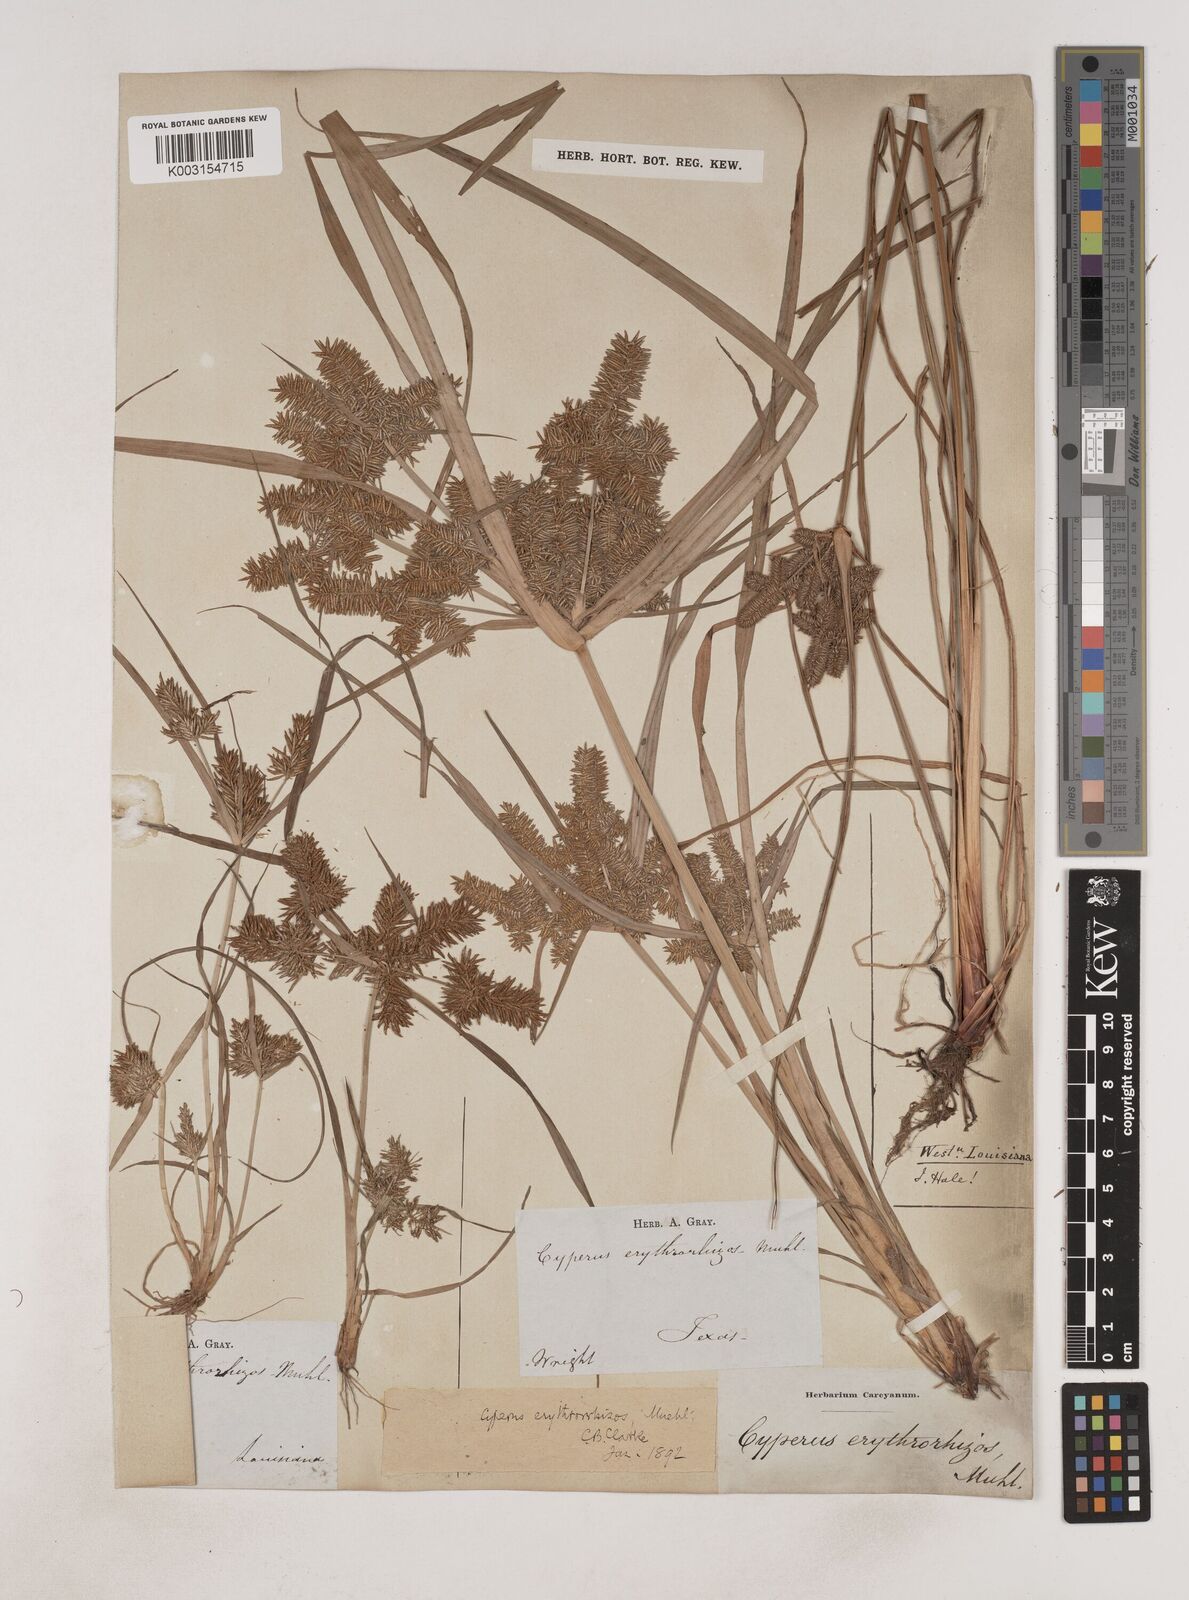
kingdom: Plantae
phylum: Tracheophyta
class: Liliopsida
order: Poales
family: Cyperaceae
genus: Cyperus
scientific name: Cyperus erythrorhizos
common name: Red-root flat sedge
